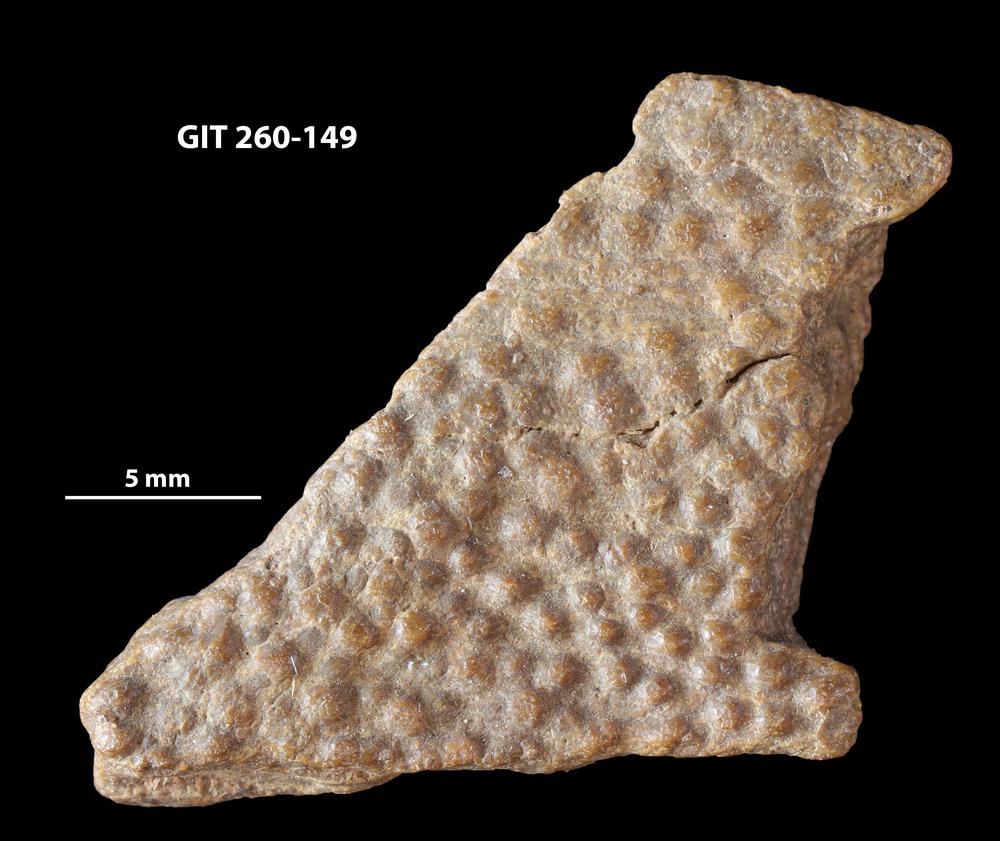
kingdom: Animalia
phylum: Chordata
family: Homostiidae
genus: Homostius
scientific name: Homostius
